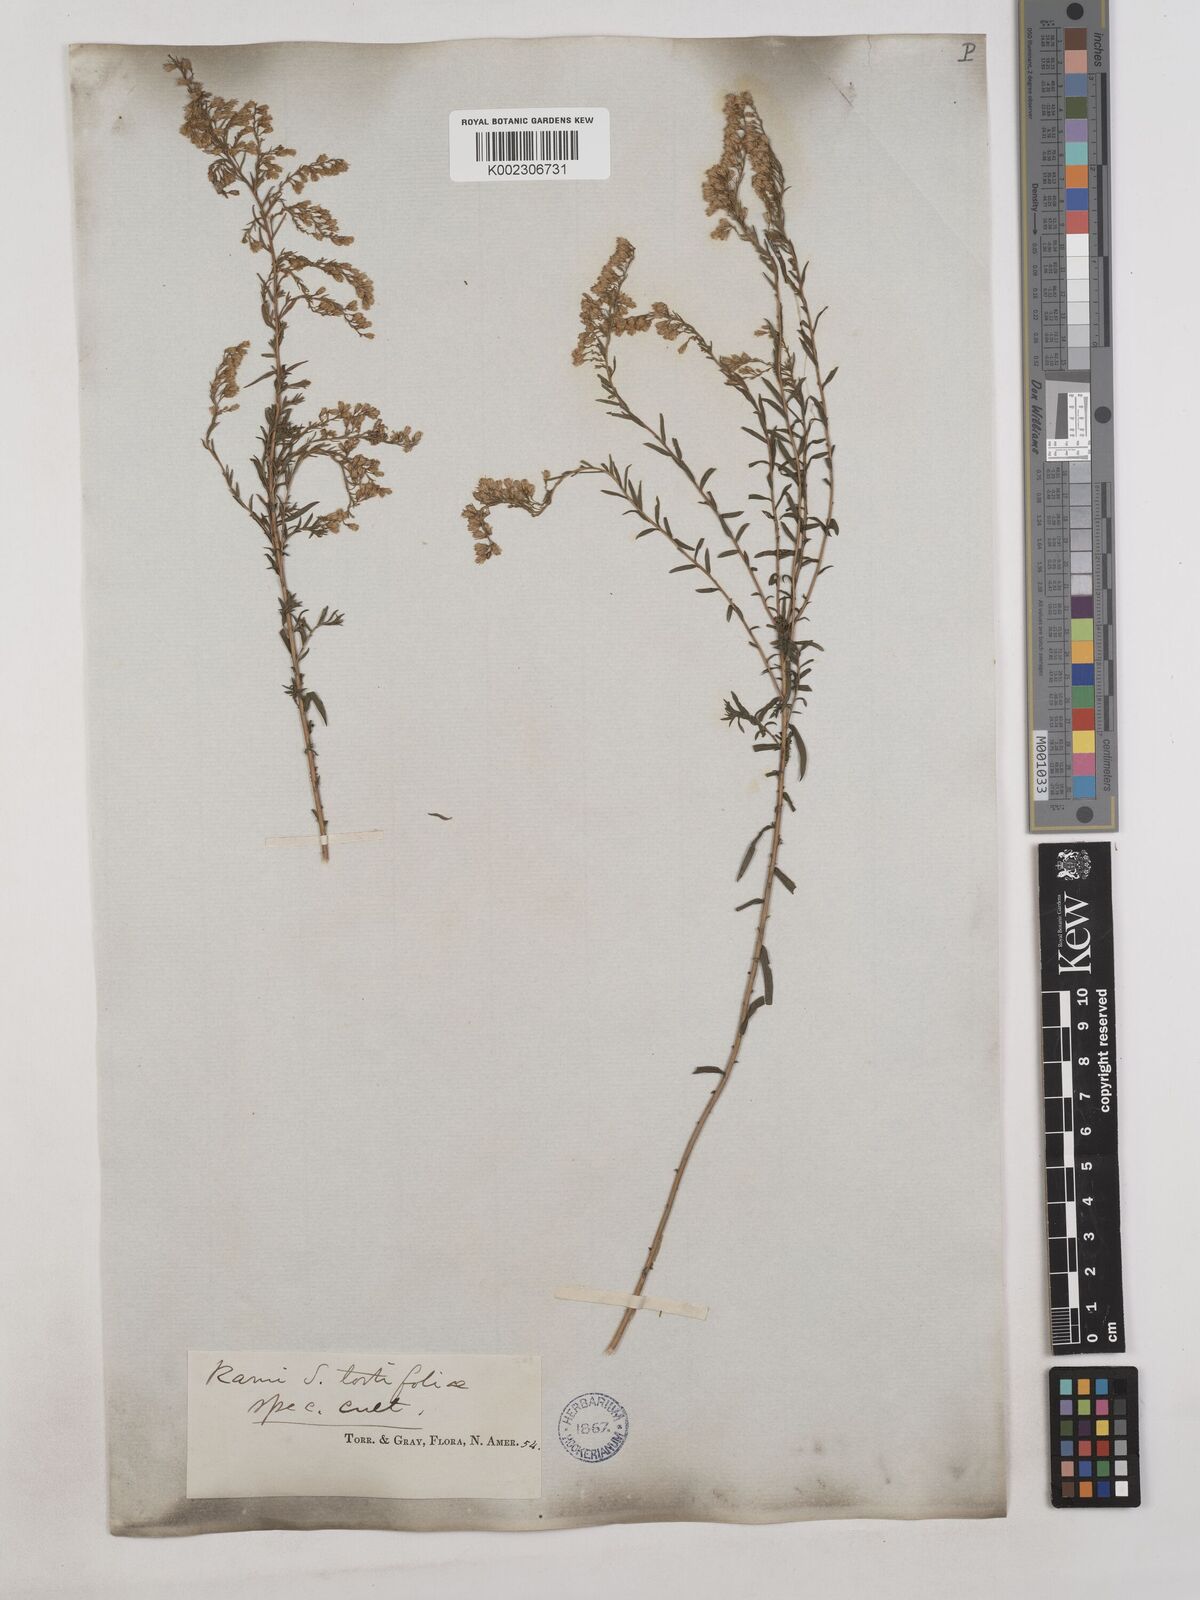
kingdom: Plantae
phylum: Tracheophyta
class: Magnoliopsida
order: Asterales
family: Asteraceae
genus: Solidago
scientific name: Solidago tortifolia
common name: Twisted-leaf goldenrod
